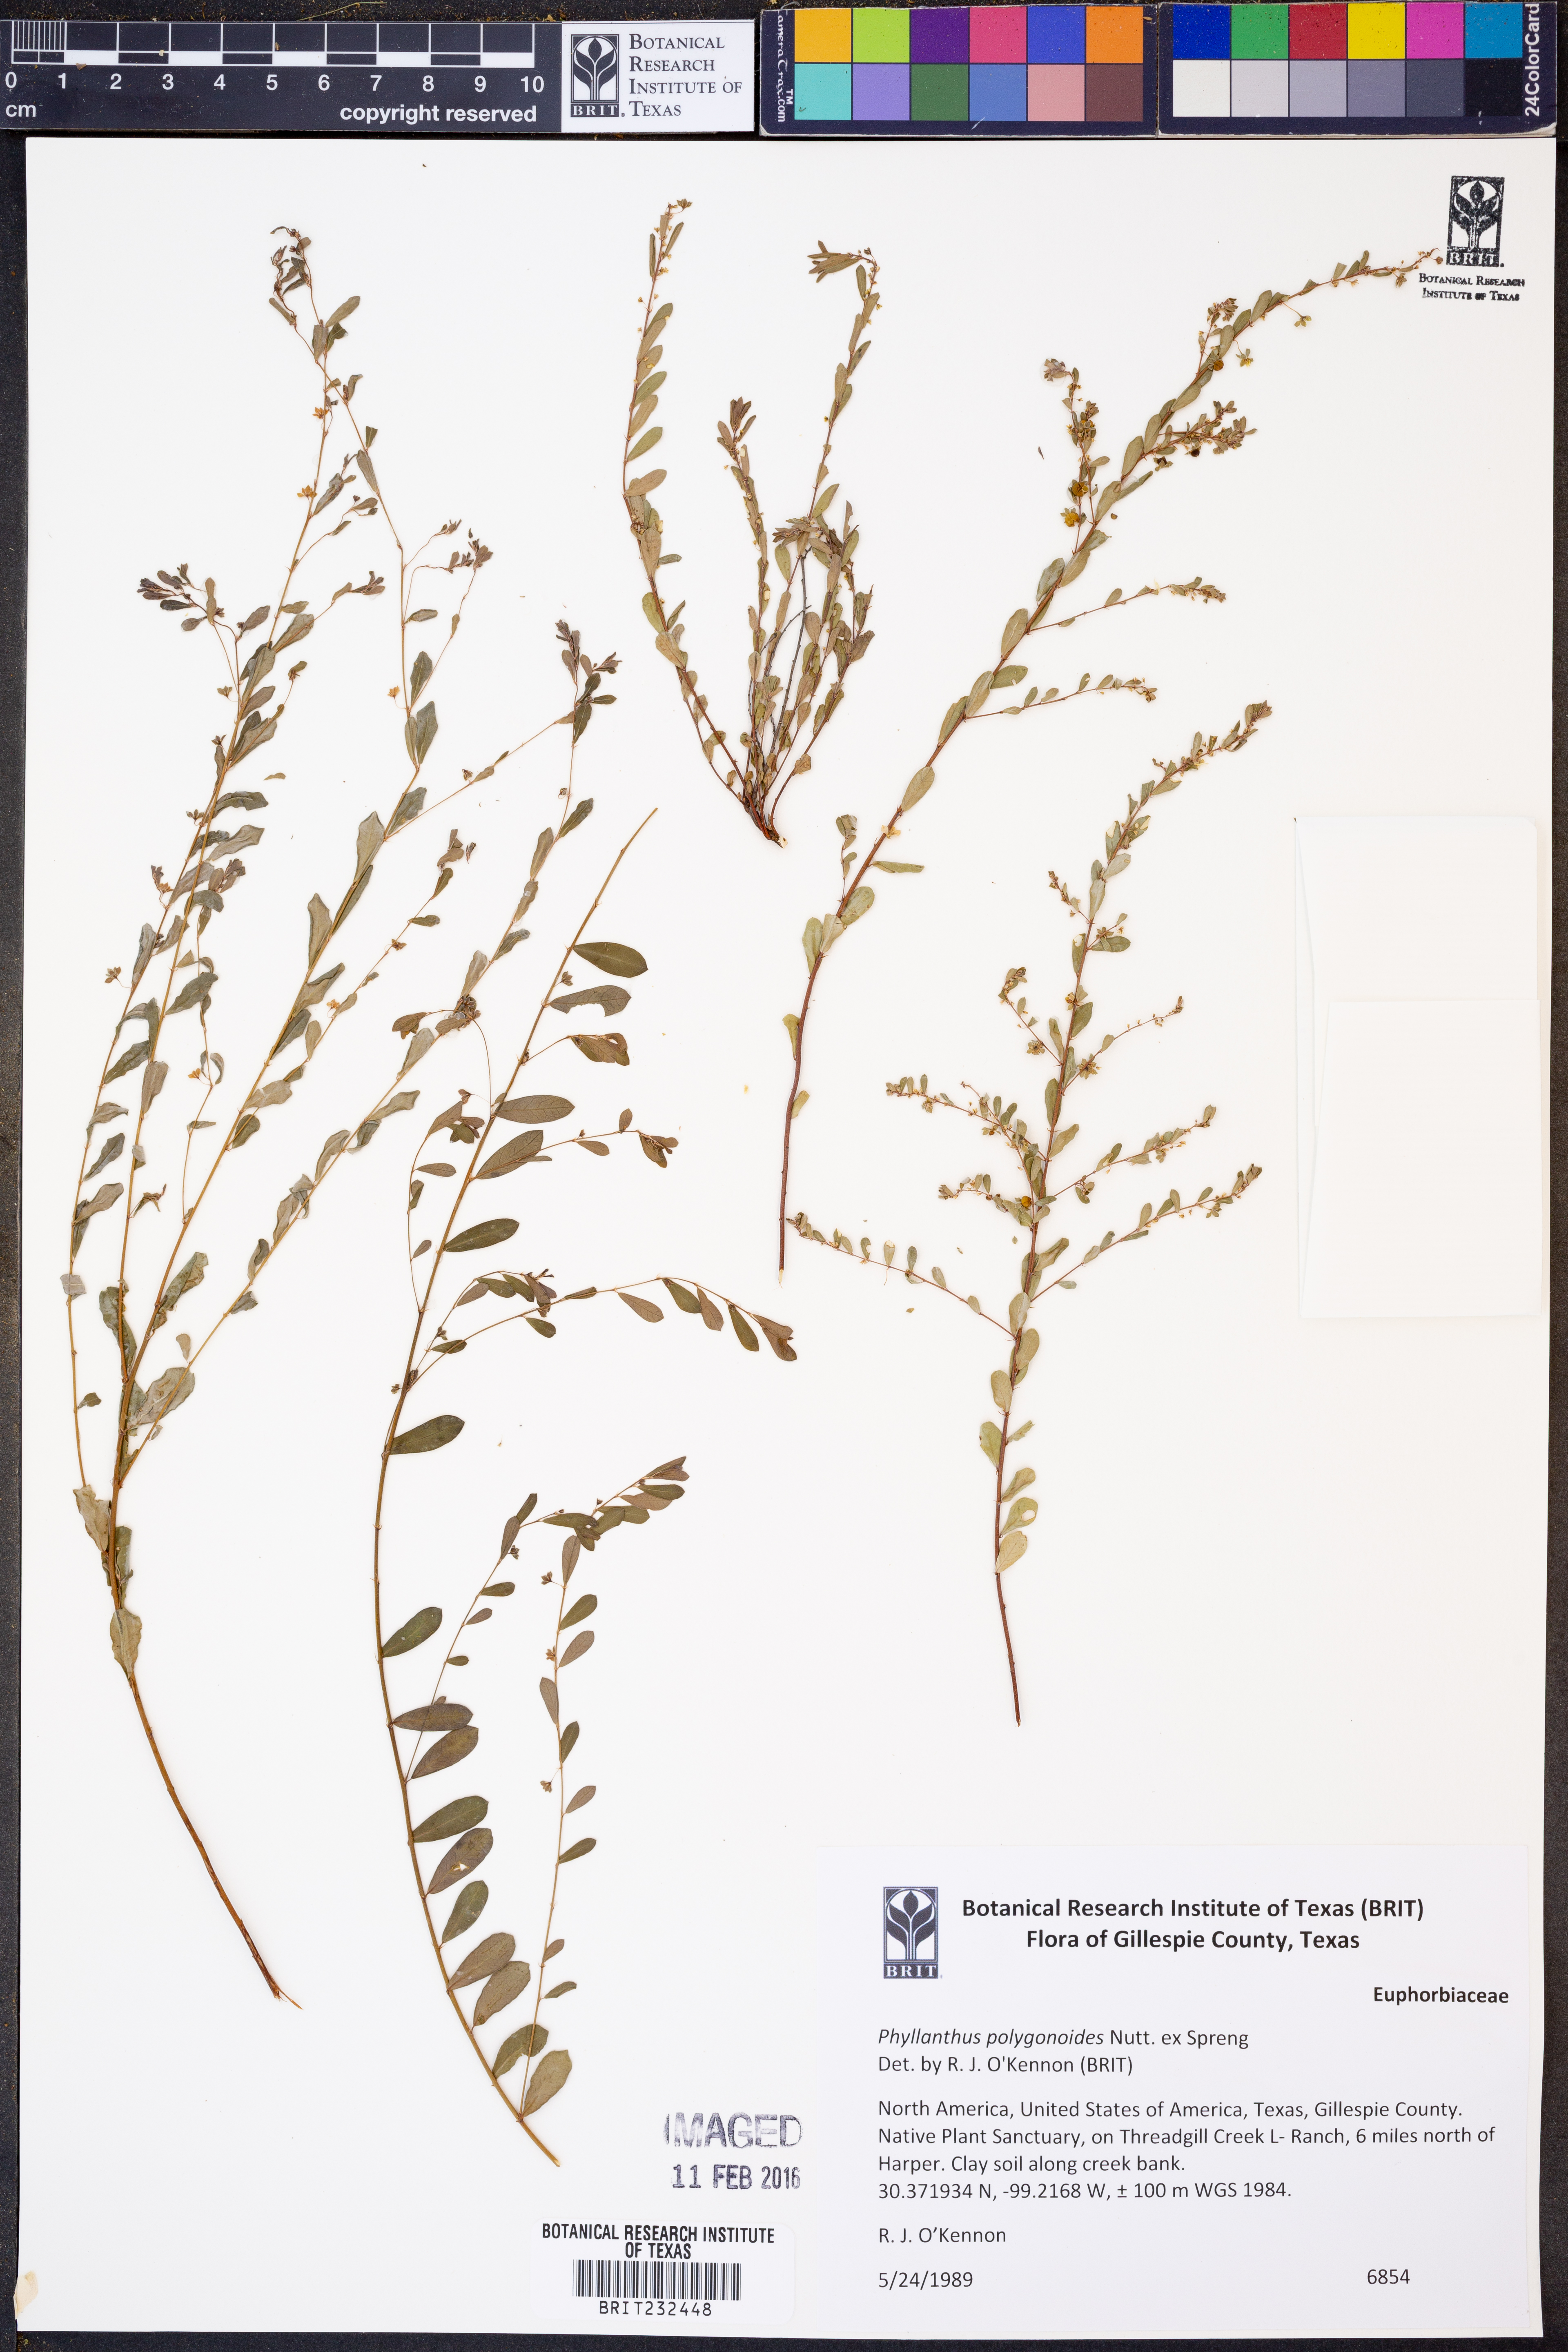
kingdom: Plantae
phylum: Tracheophyta
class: Magnoliopsida
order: Malpighiales
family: Phyllanthaceae
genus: Phyllanthus
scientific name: Phyllanthus polygonoides
